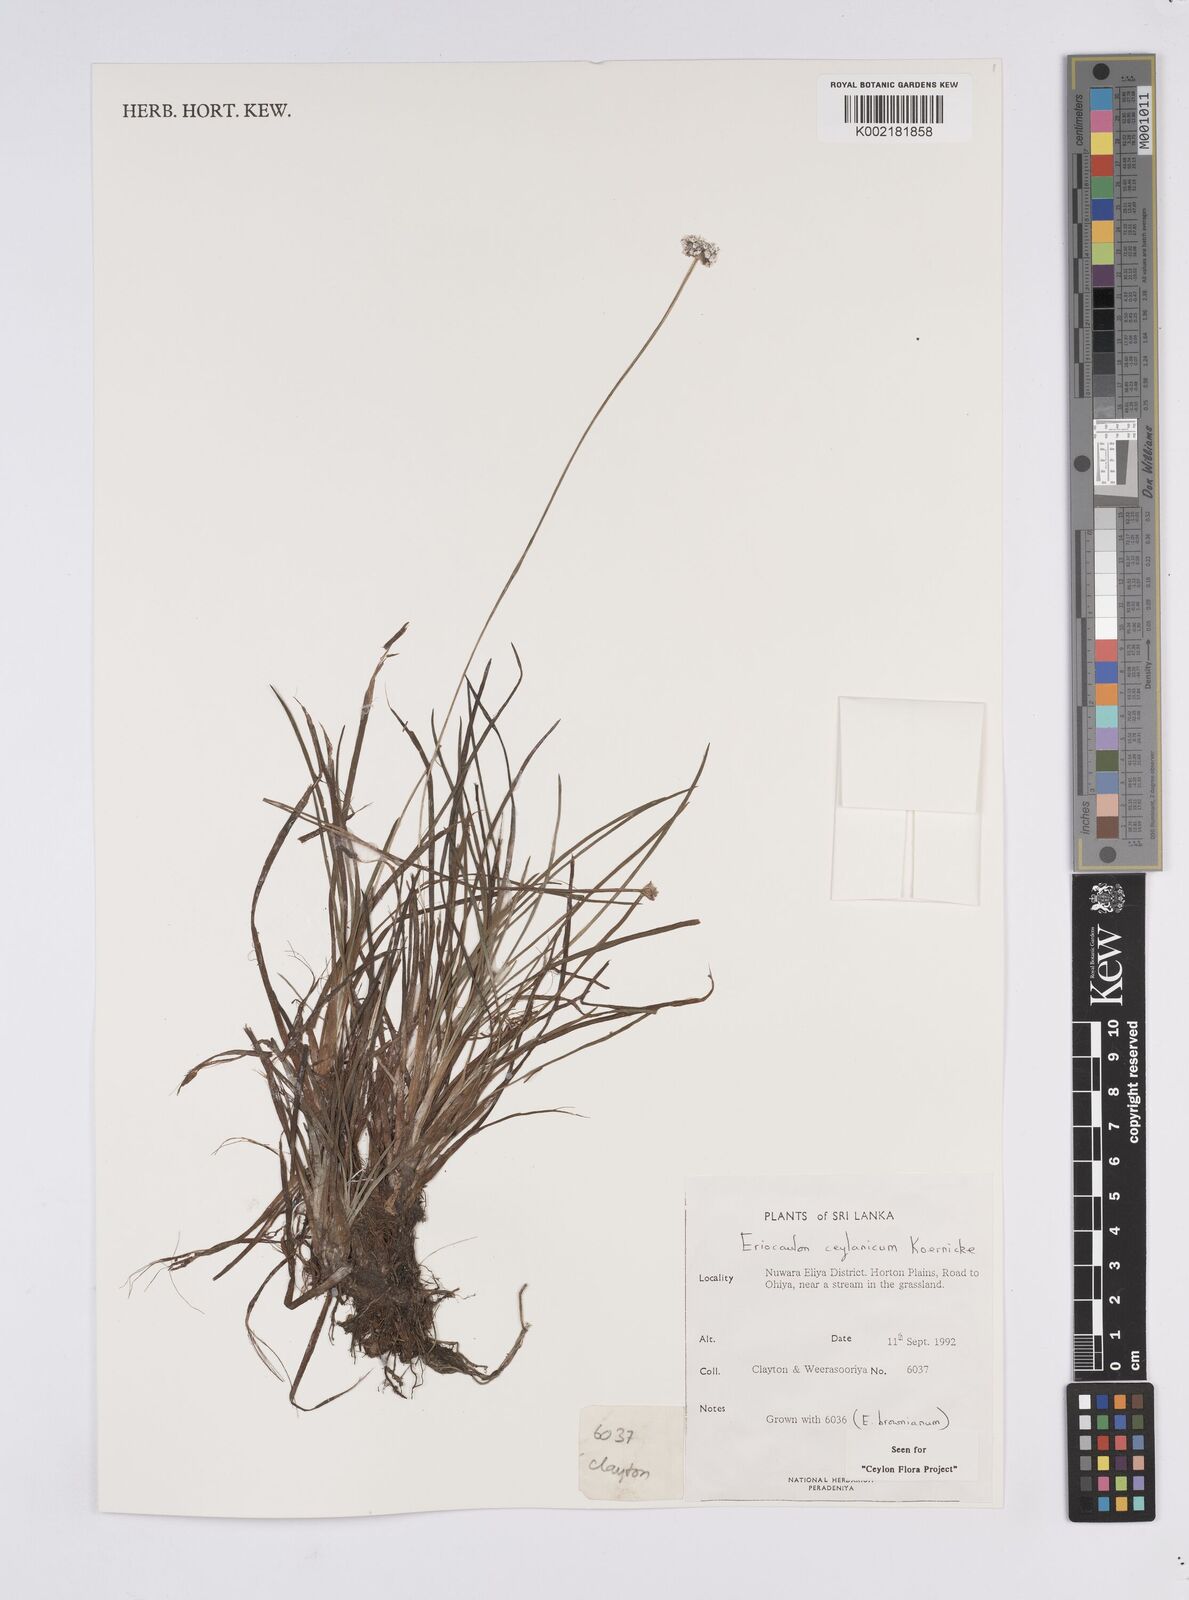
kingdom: Plantae
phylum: Tracheophyta
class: Liliopsida
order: Poales
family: Eriocaulaceae
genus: Eriocaulon
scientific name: Eriocaulon ceylanicum
